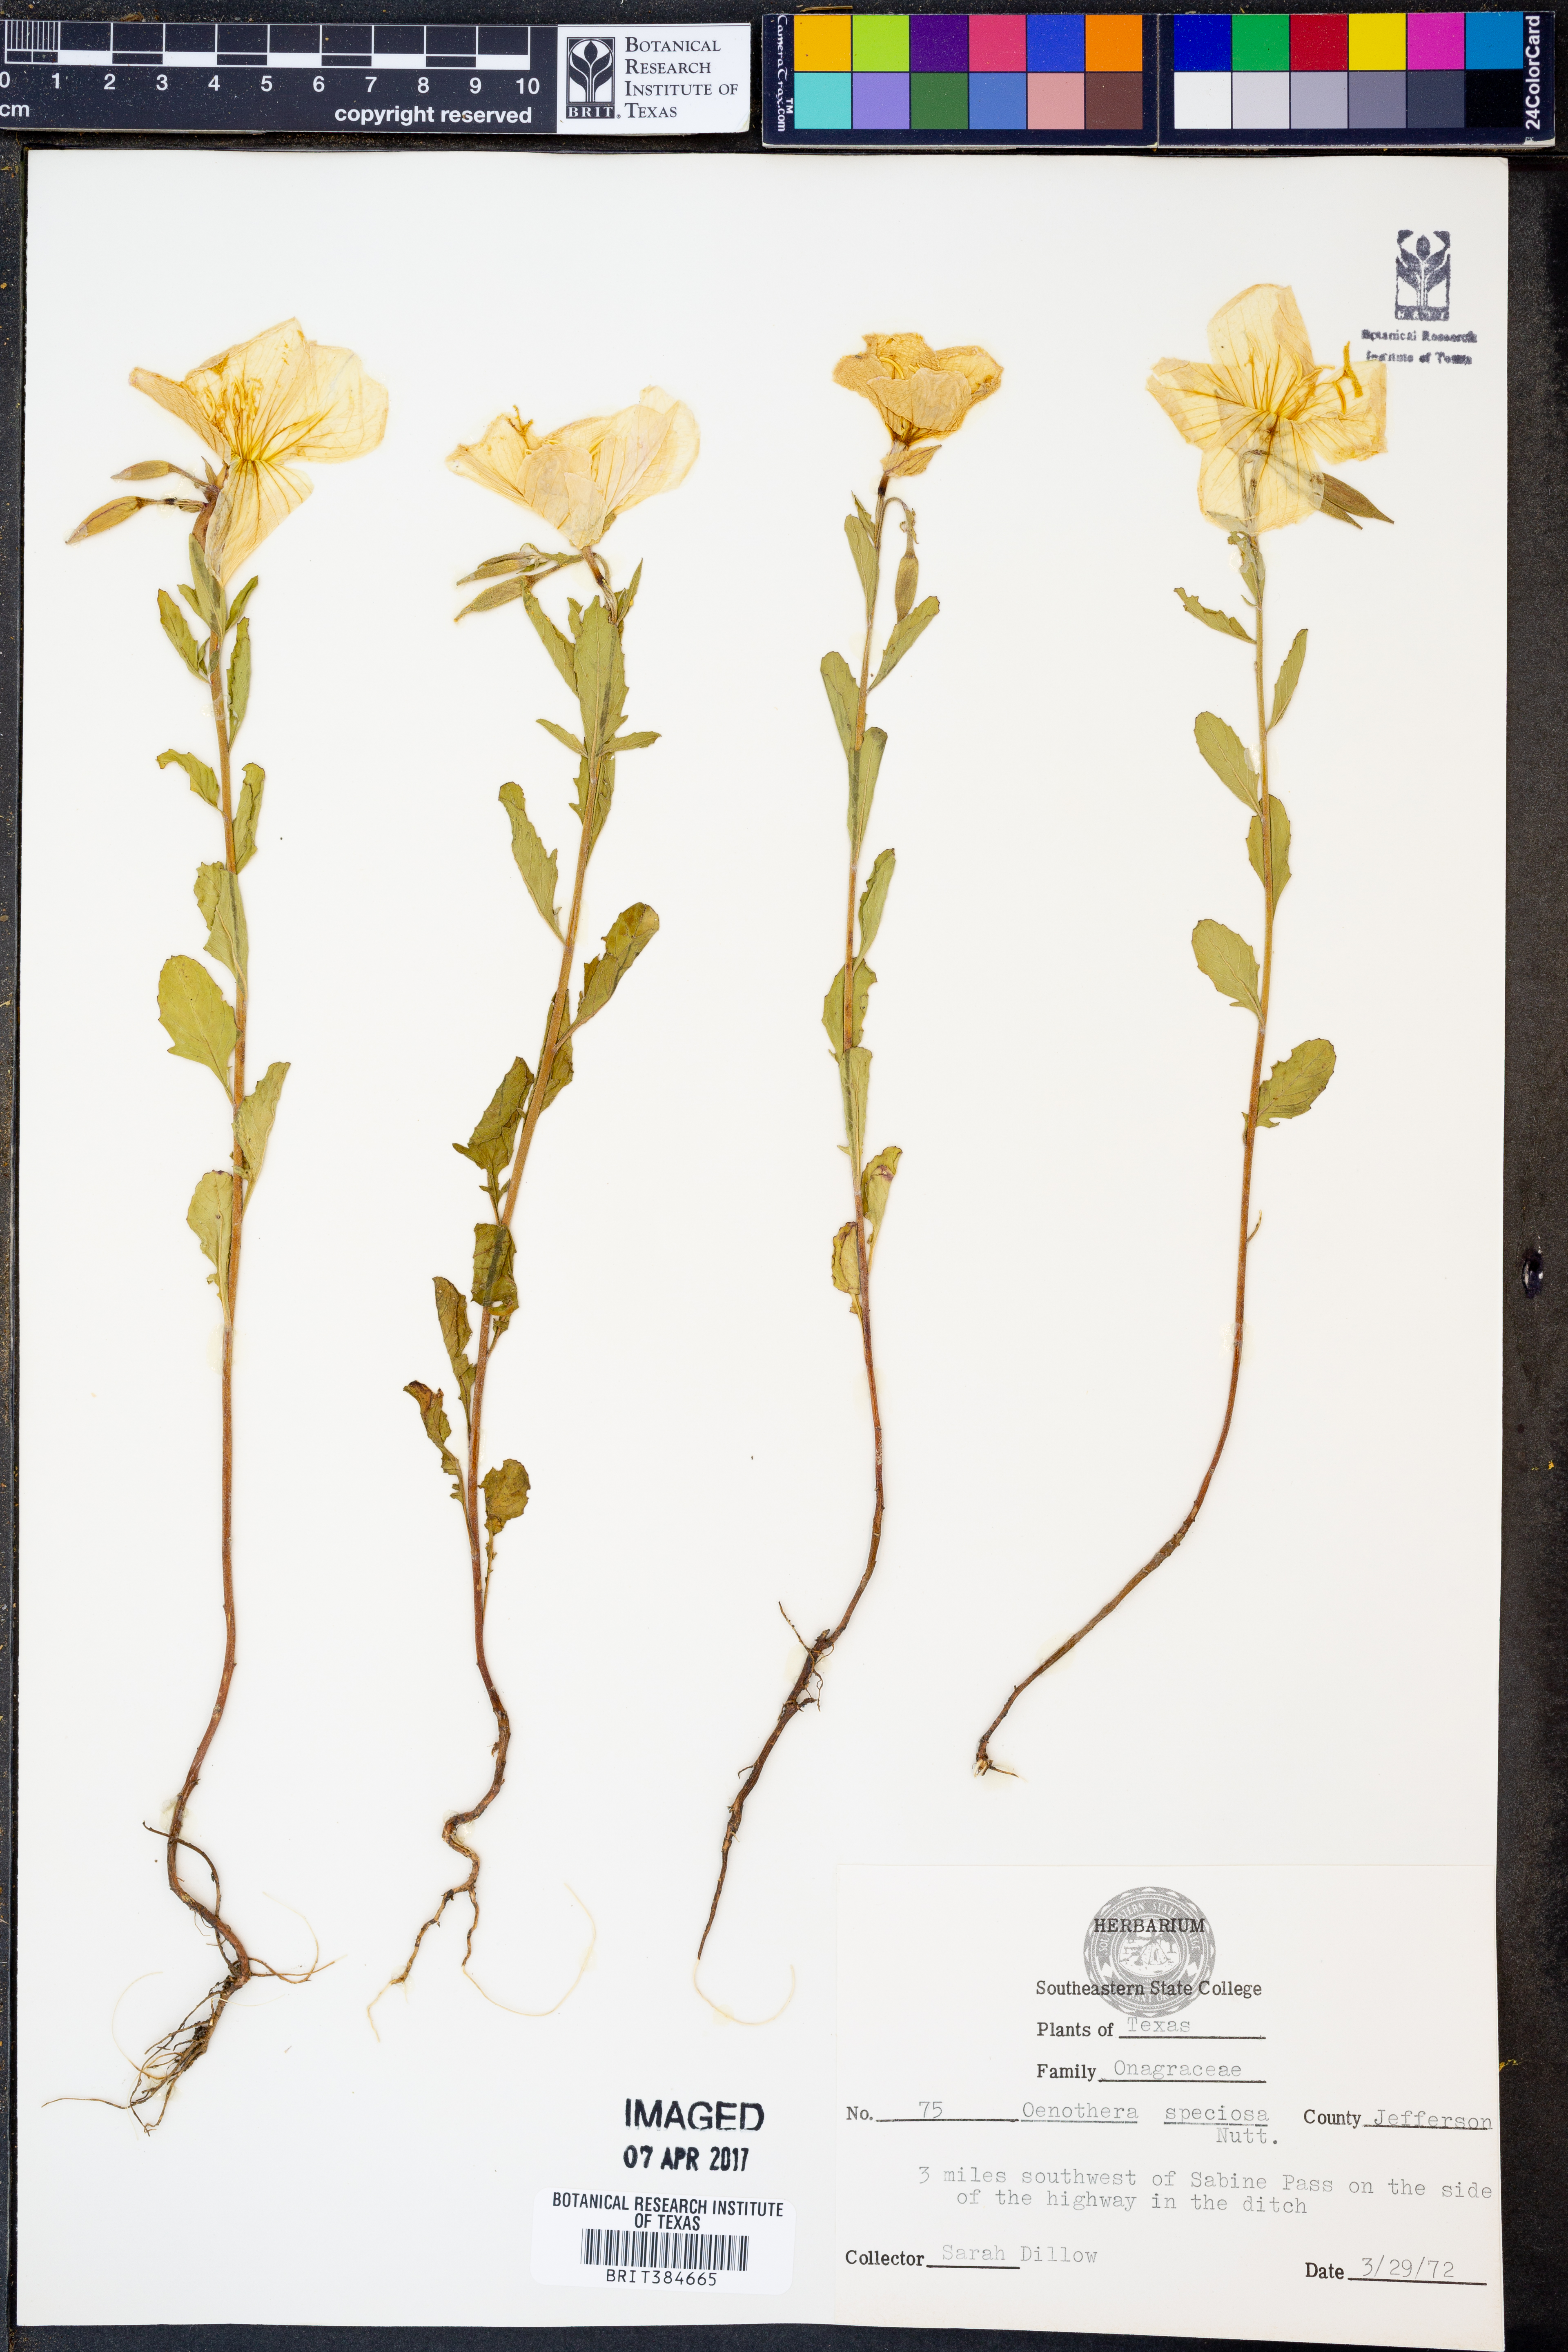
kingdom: Plantae
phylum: Tracheophyta
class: Magnoliopsida
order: Myrtales
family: Onagraceae
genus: Oenothera
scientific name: Oenothera speciosa
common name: White evening-primrose
